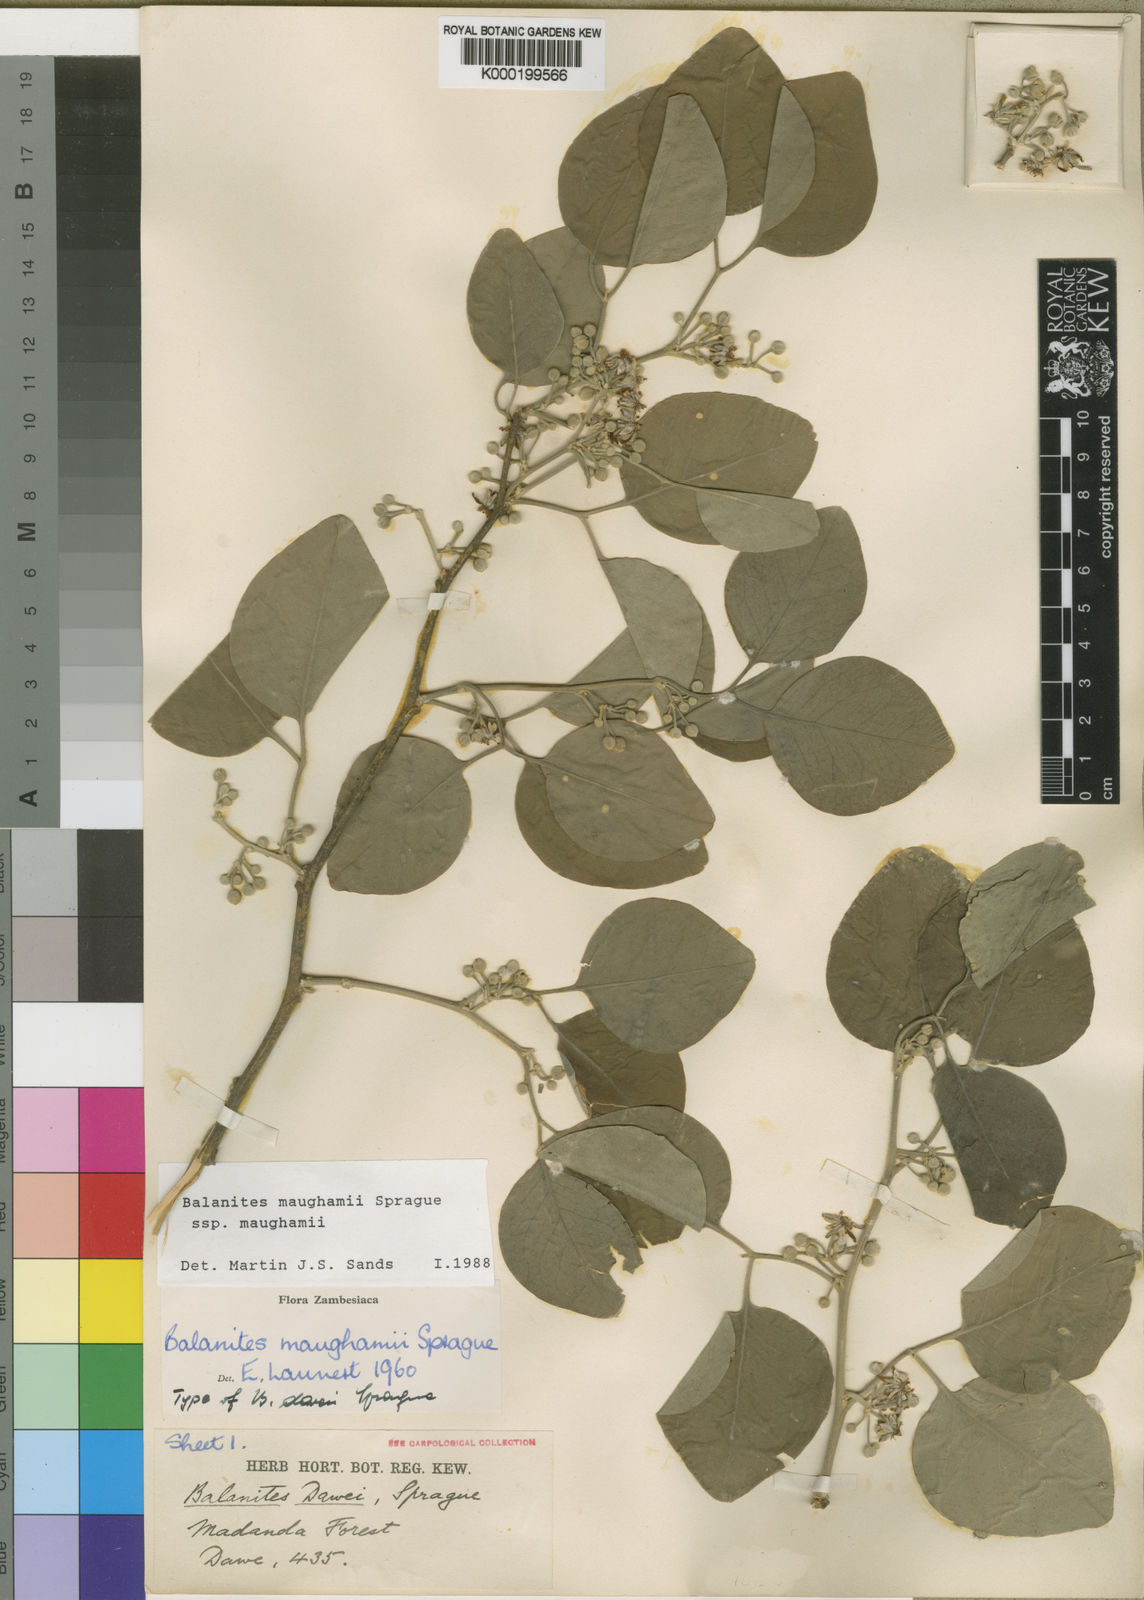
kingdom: Plantae
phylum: Tracheophyta
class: Magnoliopsida
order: Zygophyllales
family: Zygophyllaceae
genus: Balanites
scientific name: Balanites maughamii
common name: Torchwood
